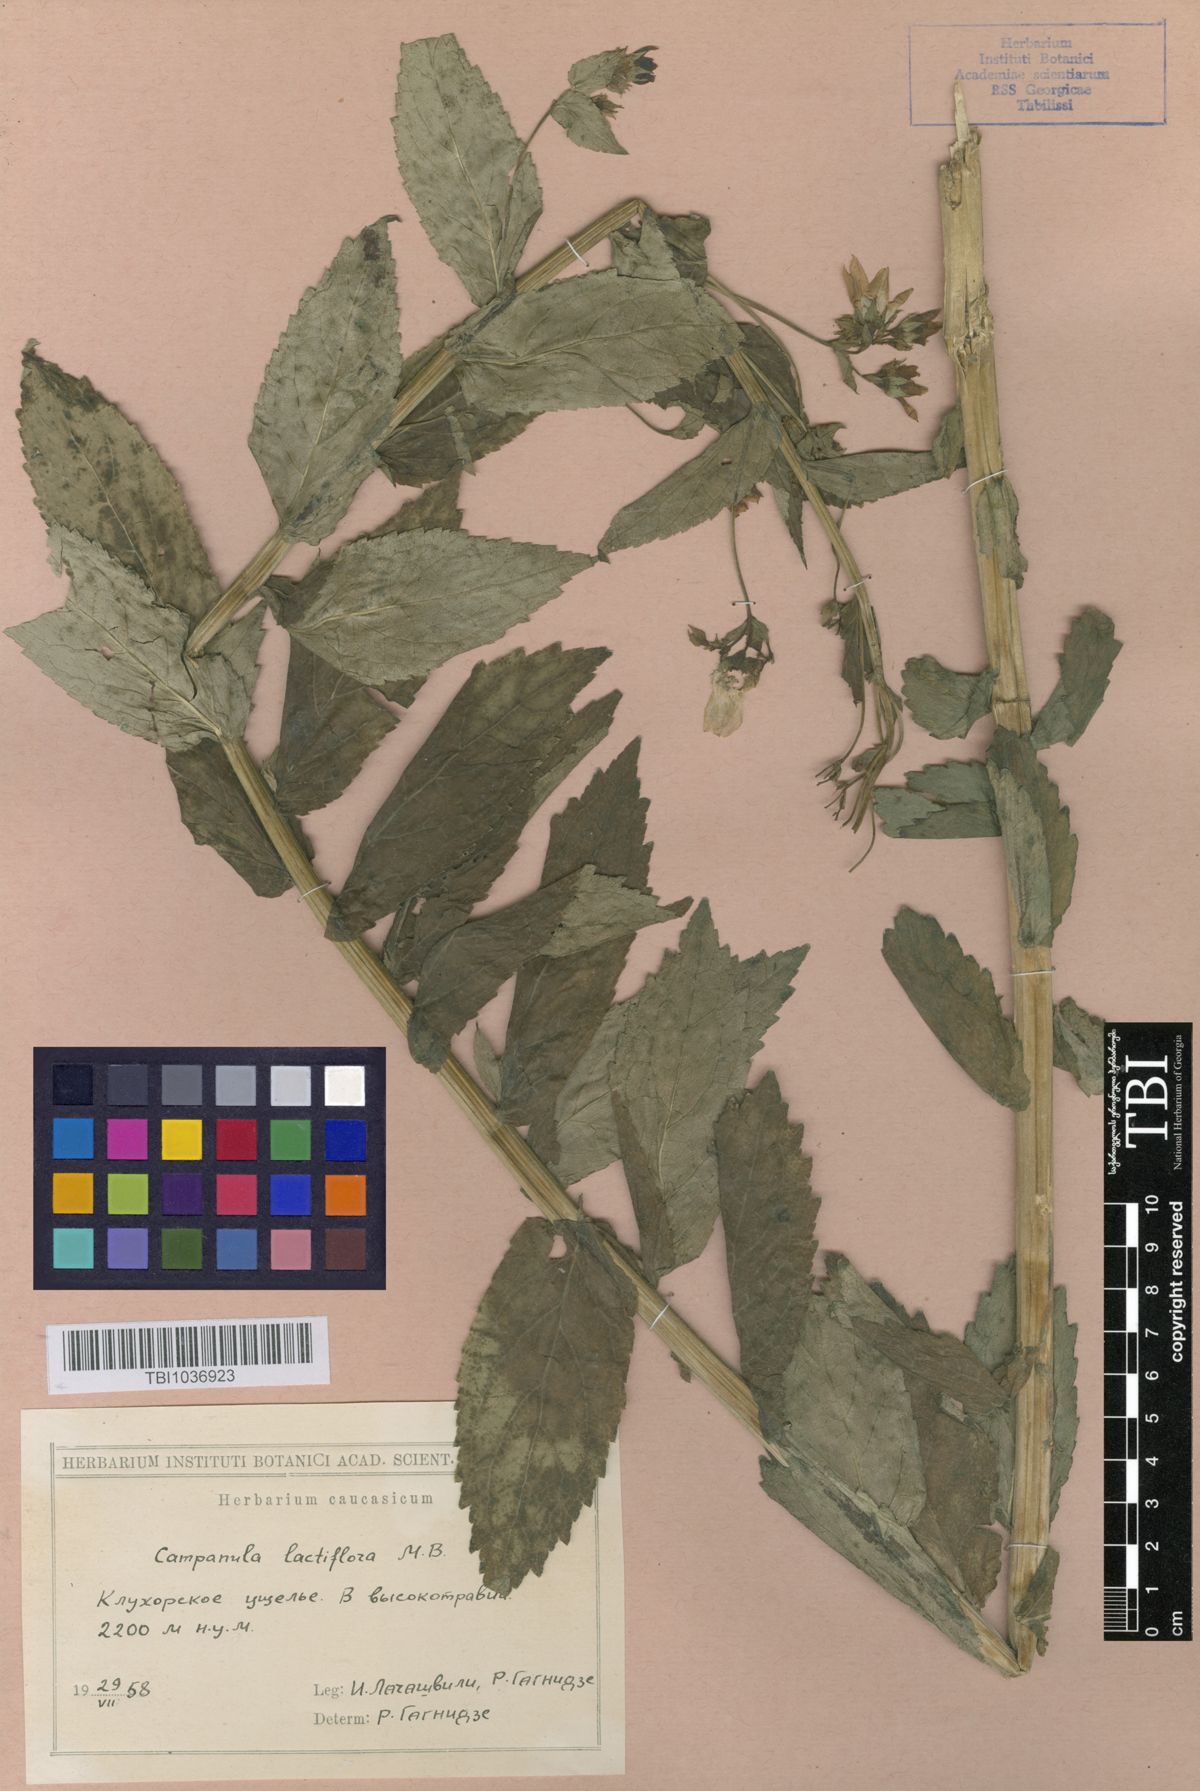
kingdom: Plantae
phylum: Tracheophyta
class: Magnoliopsida
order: Asterales
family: Campanulaceae
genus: Campanula
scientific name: Campanula lactiflora
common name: Milky bellflower
